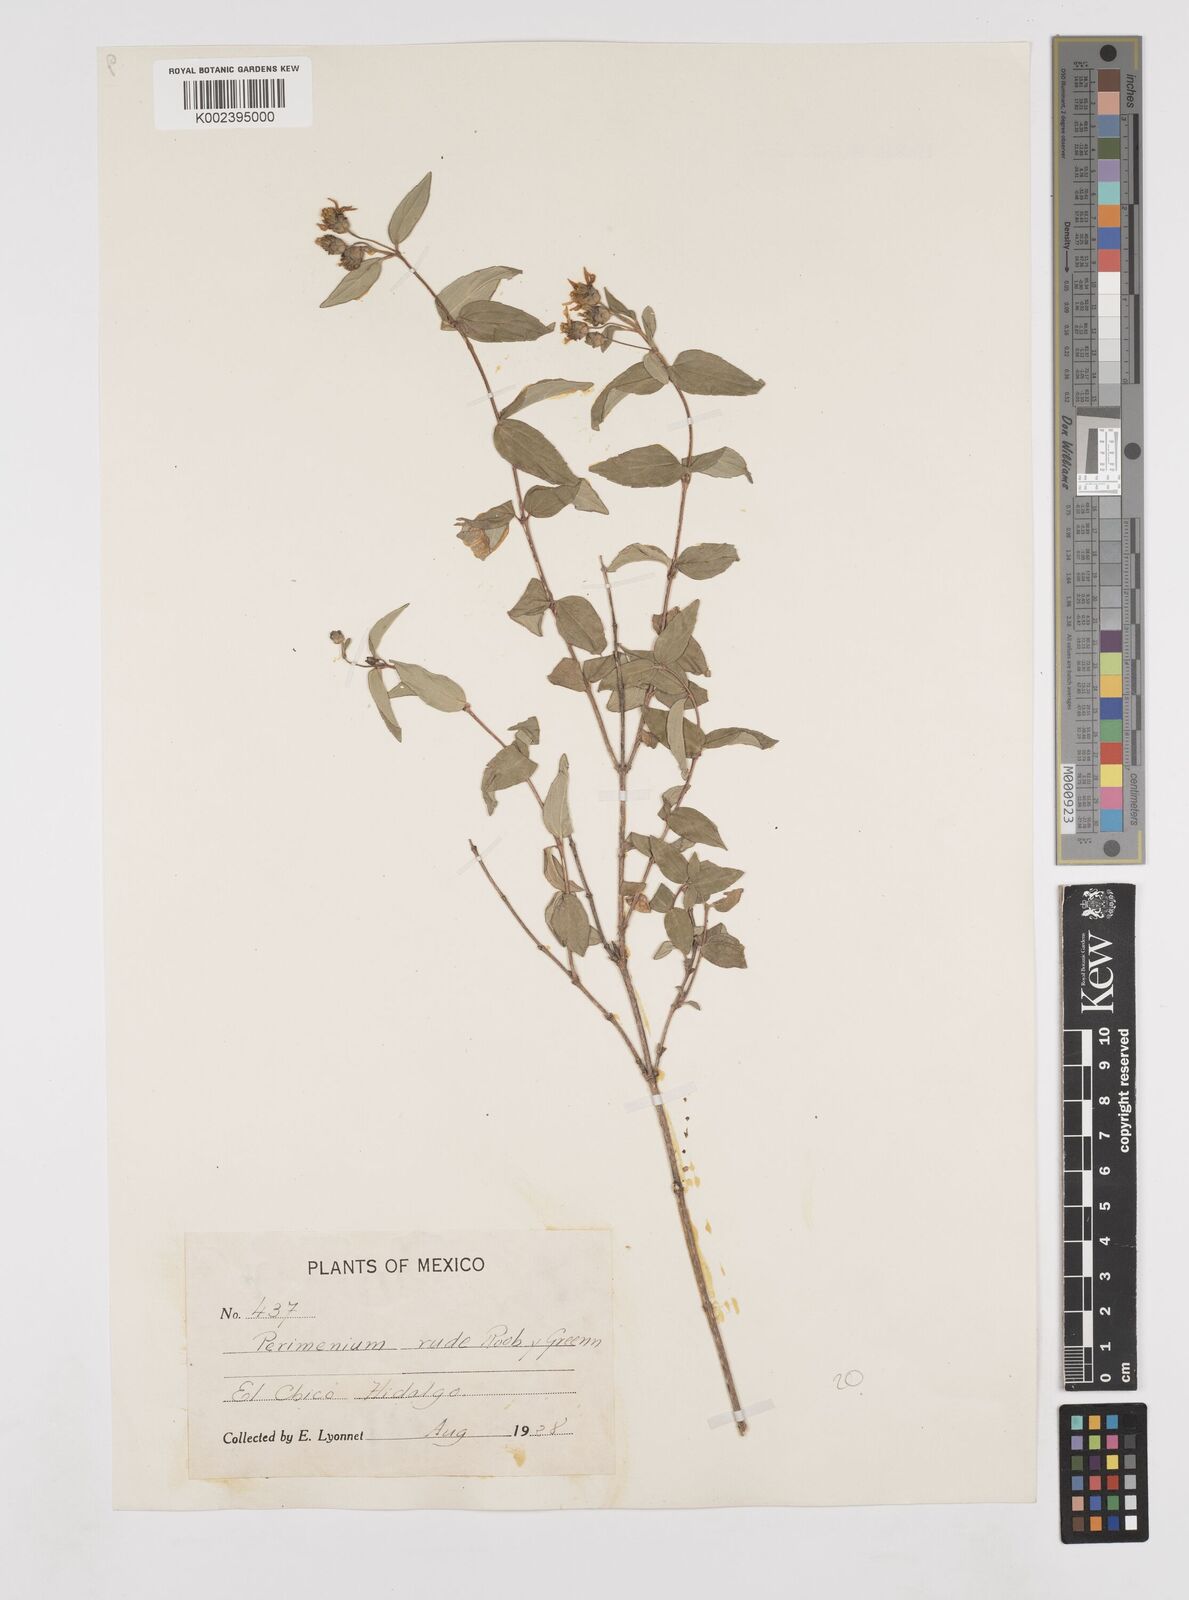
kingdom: Plantae
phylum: Tracheophyta
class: Magnoliopsida
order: Asterales
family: Asteraceae
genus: Perymenium
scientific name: Perymenium berlandieri
